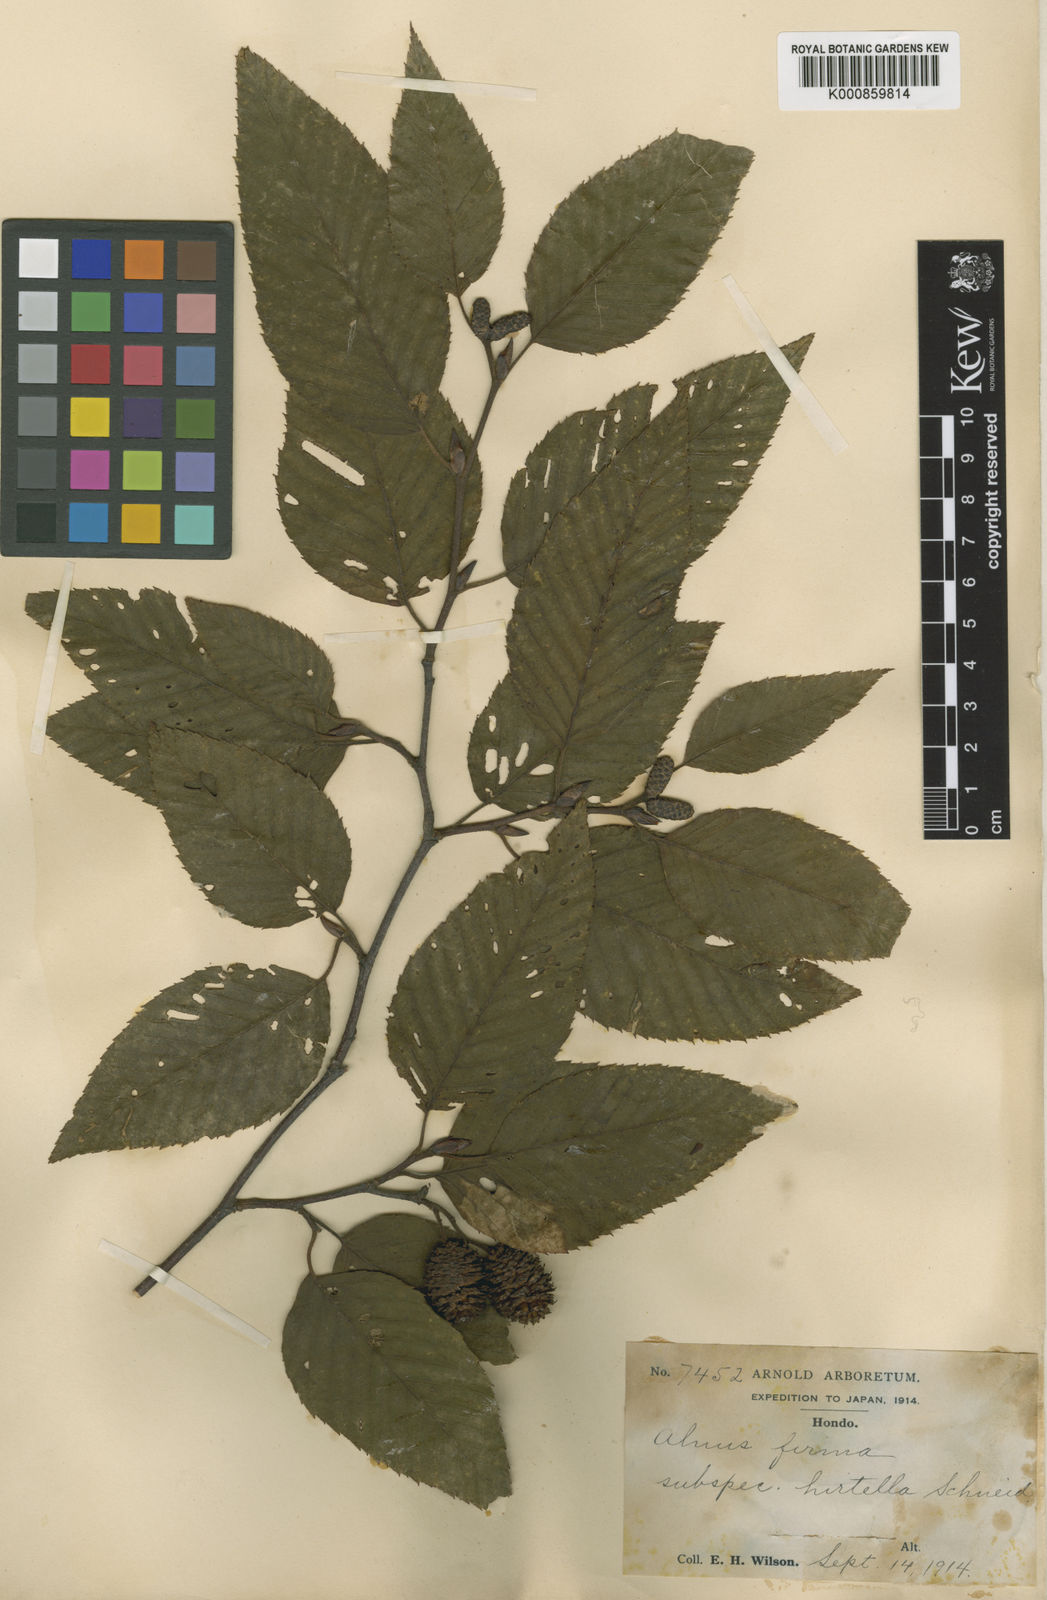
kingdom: Plantae
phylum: Tracheophyta
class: Magnoliopsida
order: Fagales
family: Betulaceae
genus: Alnus
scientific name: Alnus firma
